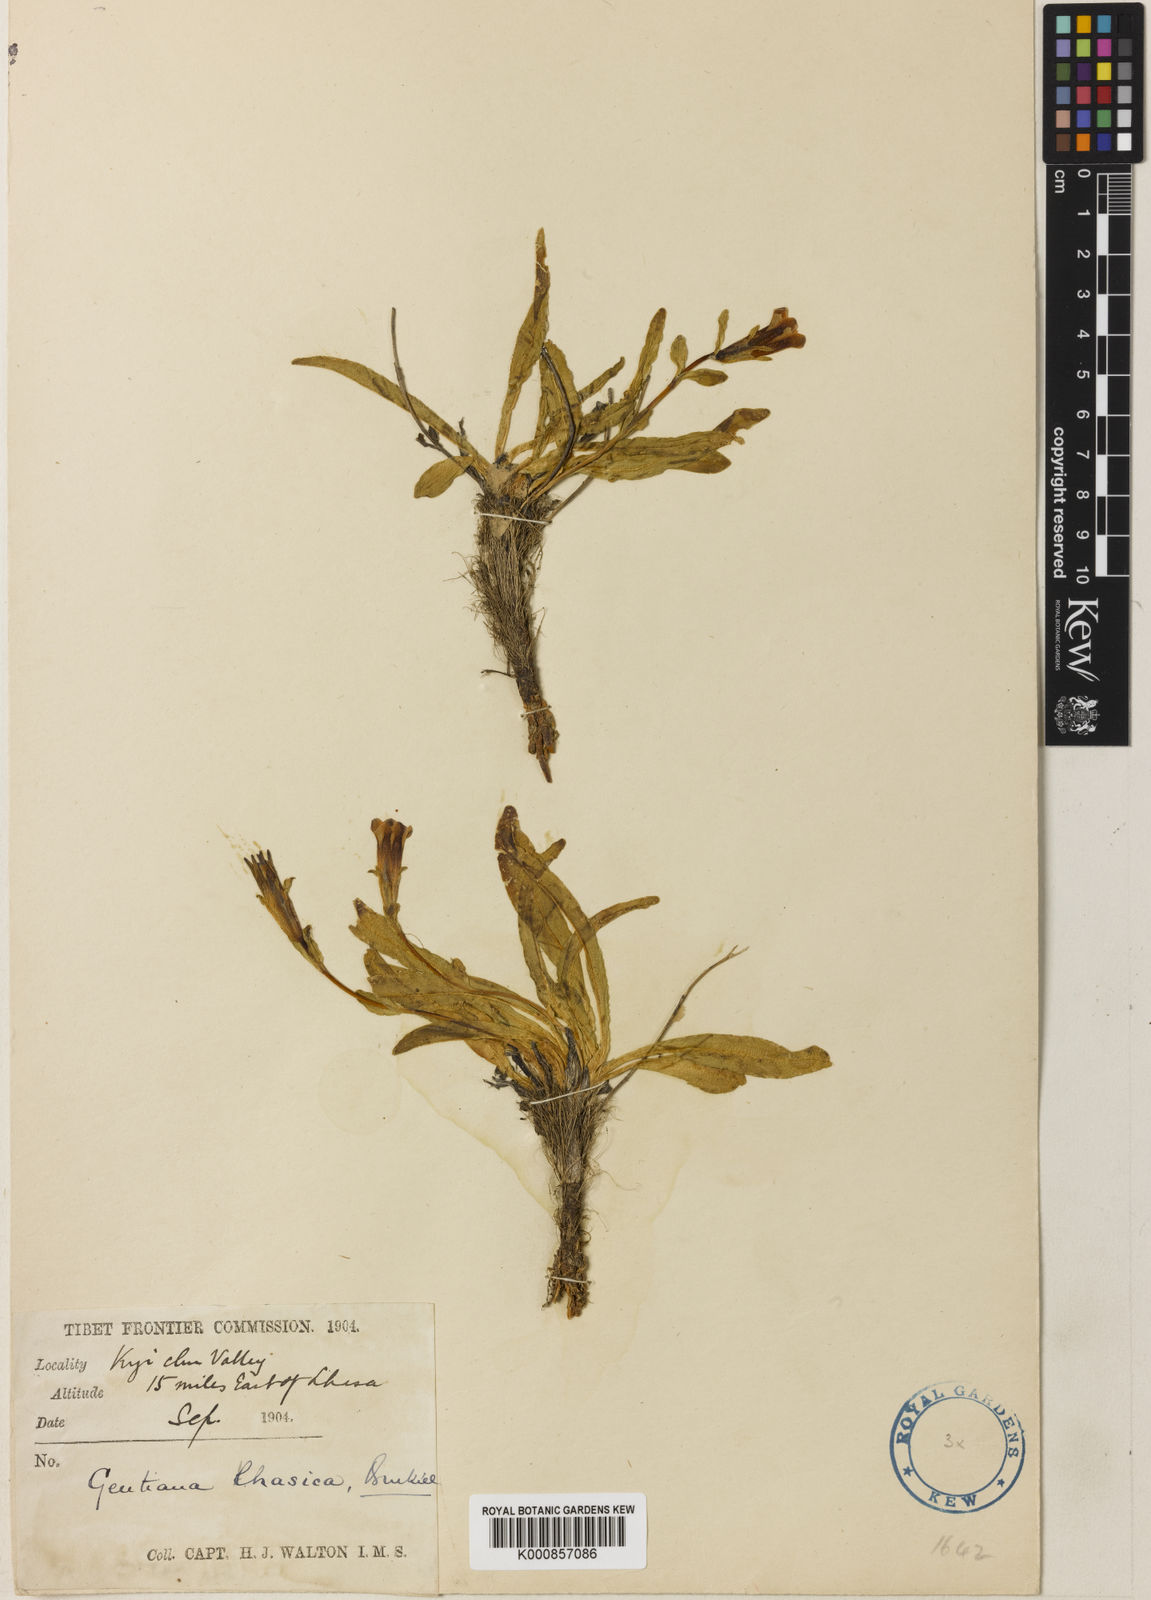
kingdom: Plantae
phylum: Tracheophyta
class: Magnoliopsida
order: Gentianales
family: Gentianaceae
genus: Gentiana
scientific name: Gentiana lhassica
